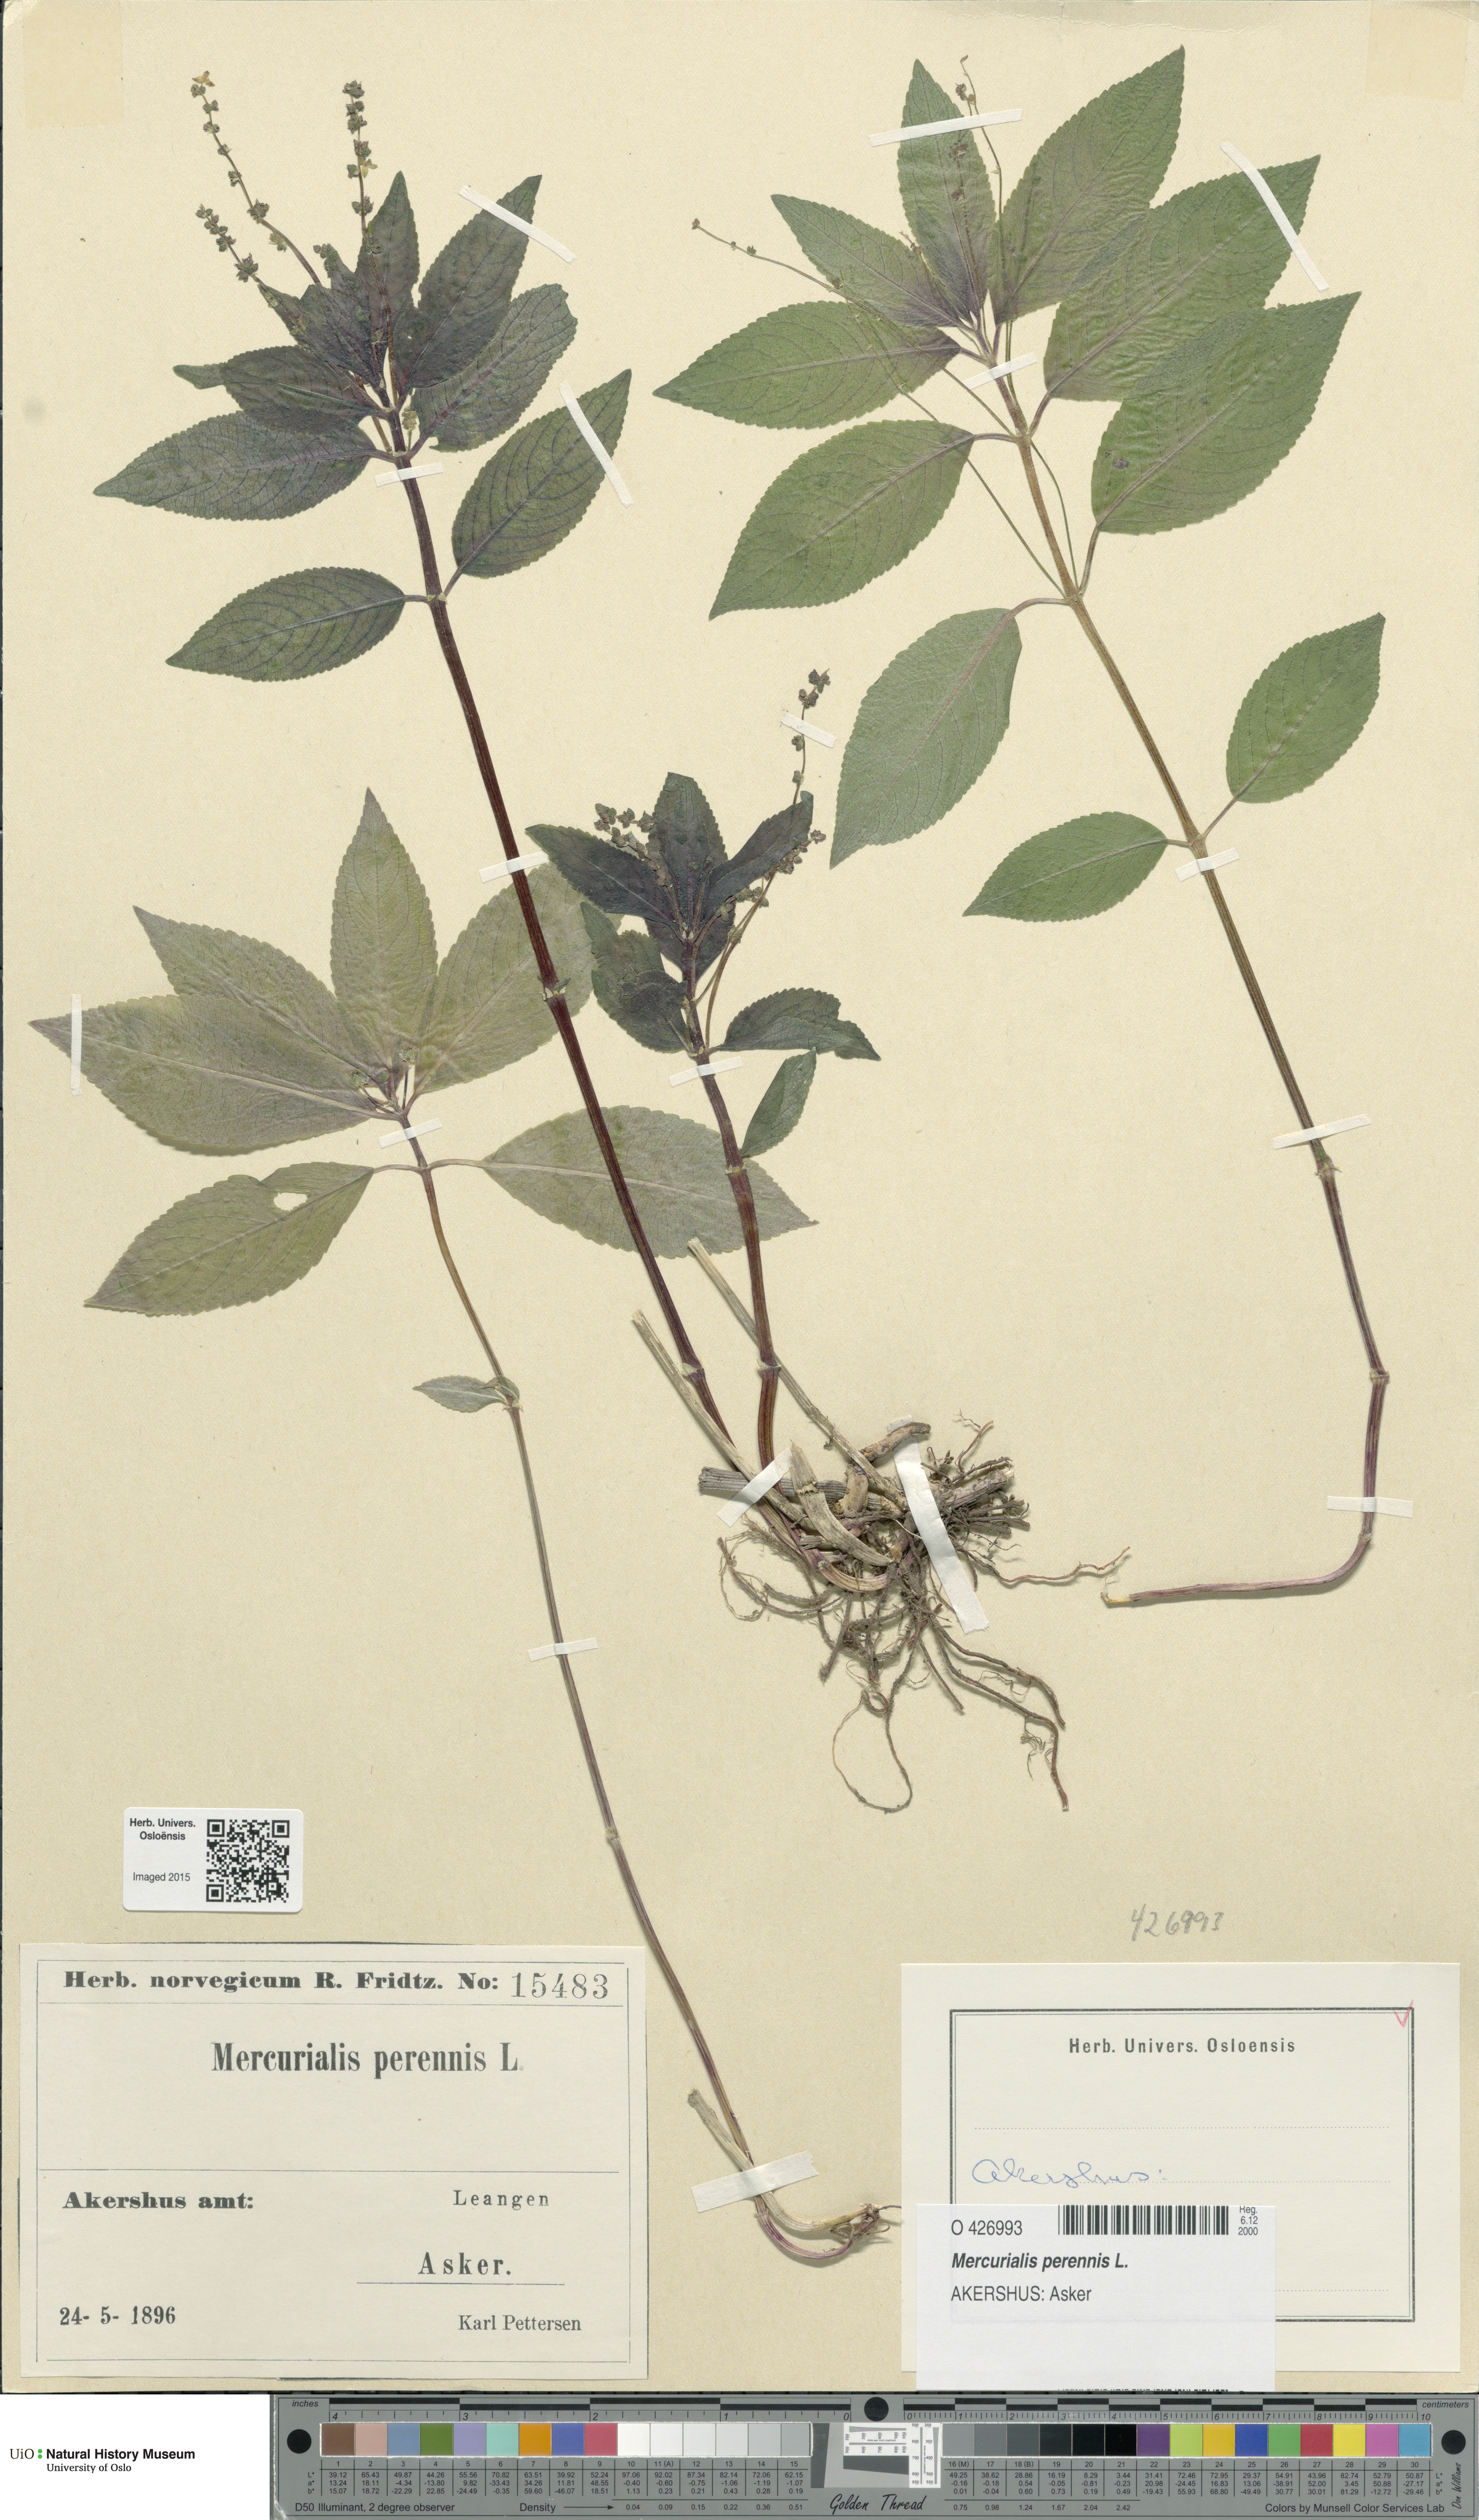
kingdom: Plantae
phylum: Tracheophyta
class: Magnoliopsida
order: Malpighiales
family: Euphorbiaceae
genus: Mercurialis
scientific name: Mercurialis perennis
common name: Dog mercury
